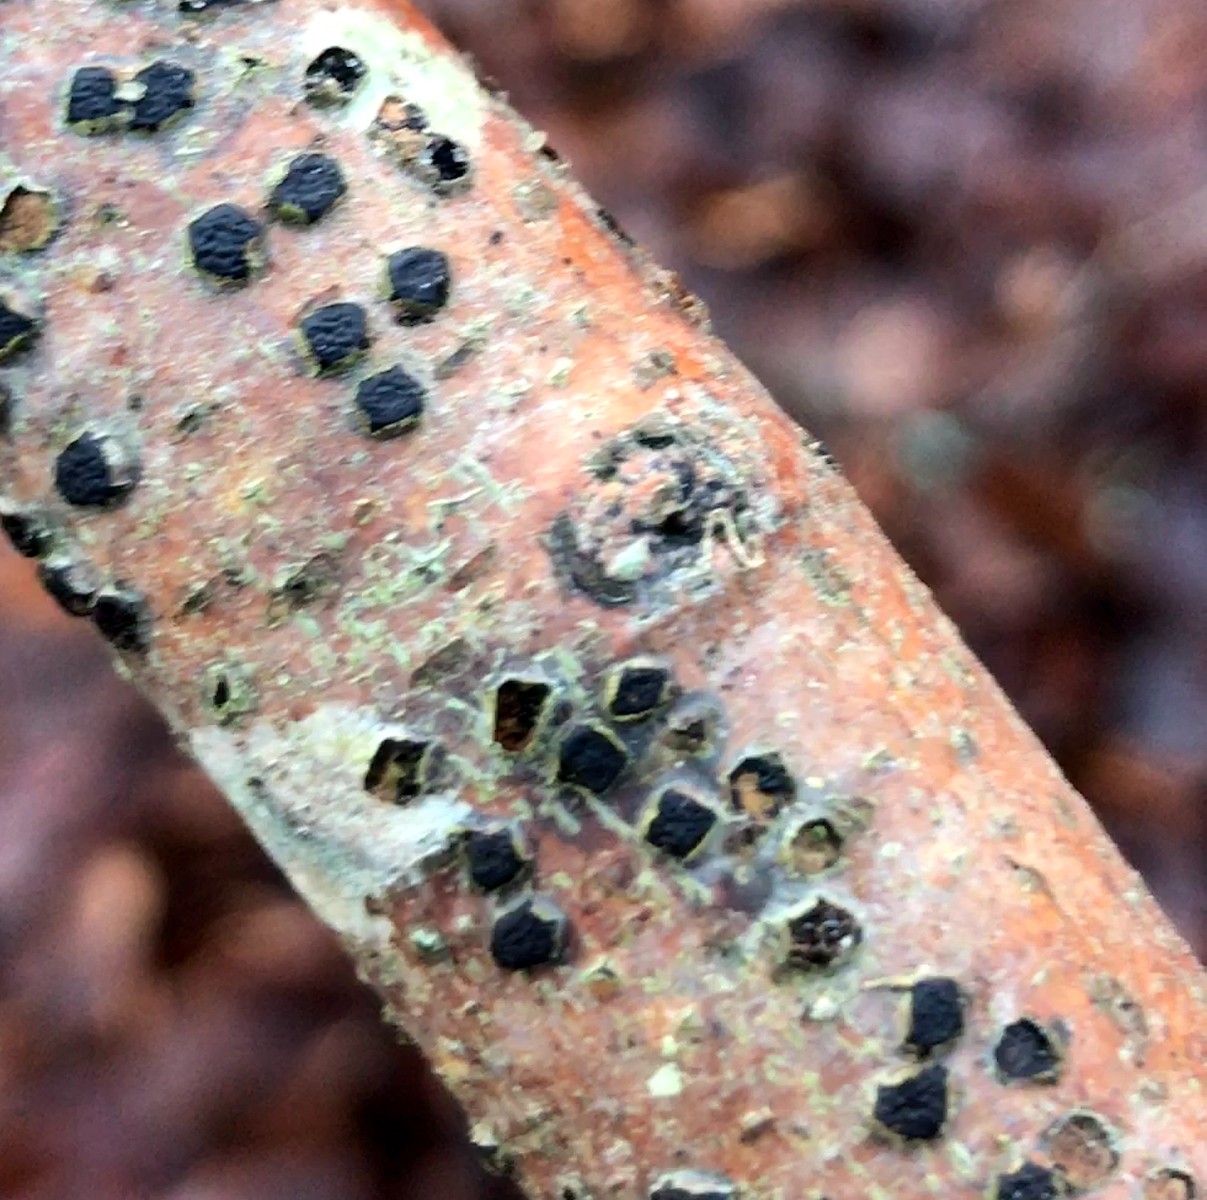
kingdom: Fungi
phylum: Ascomycota
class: Sordariomycetes
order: Xylariales
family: Diatrypaceae
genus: Diatrype
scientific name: Diatrype disciformis
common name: kant-kulskorpe
